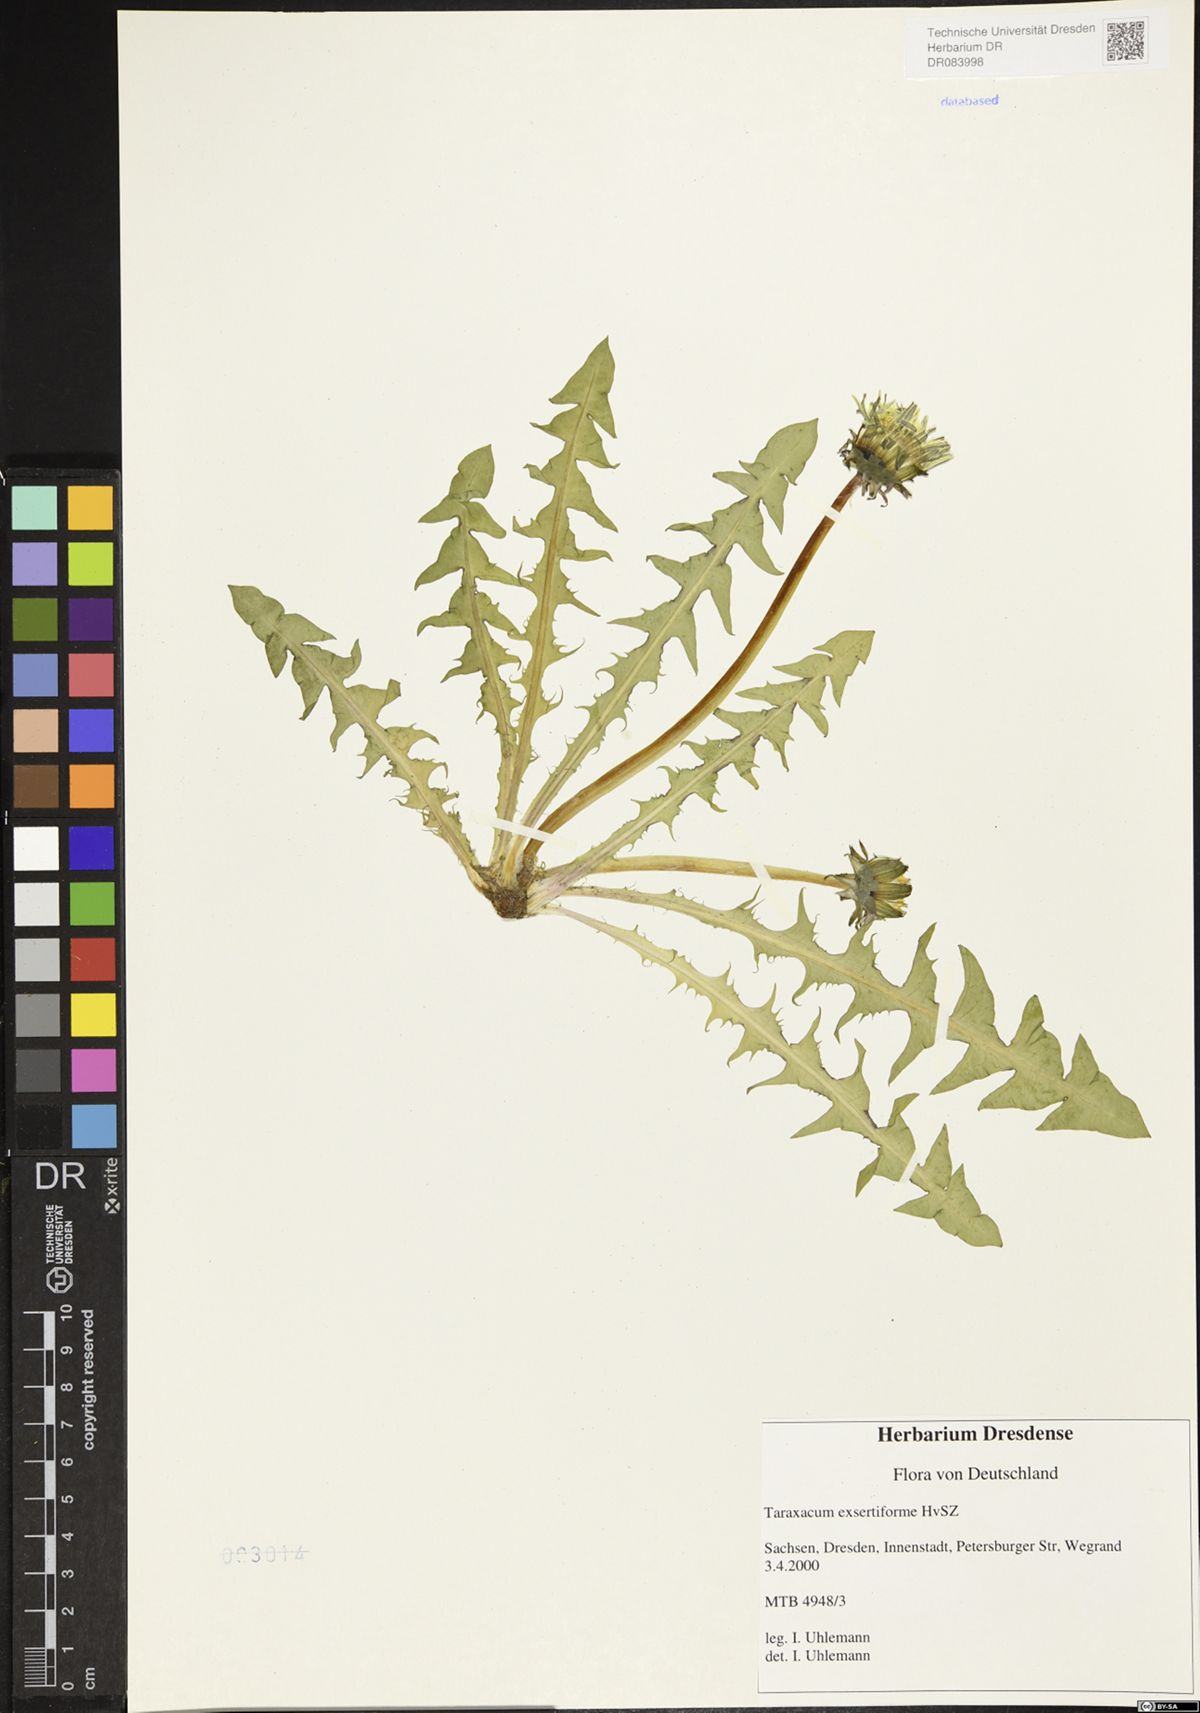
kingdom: Plantae
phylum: Tracheophyta
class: Magnoliopsida
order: Asterales
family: Asteraceae
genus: Taraxacum
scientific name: Taraxacum exsertiforme
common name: Erect-bracted dandelion
